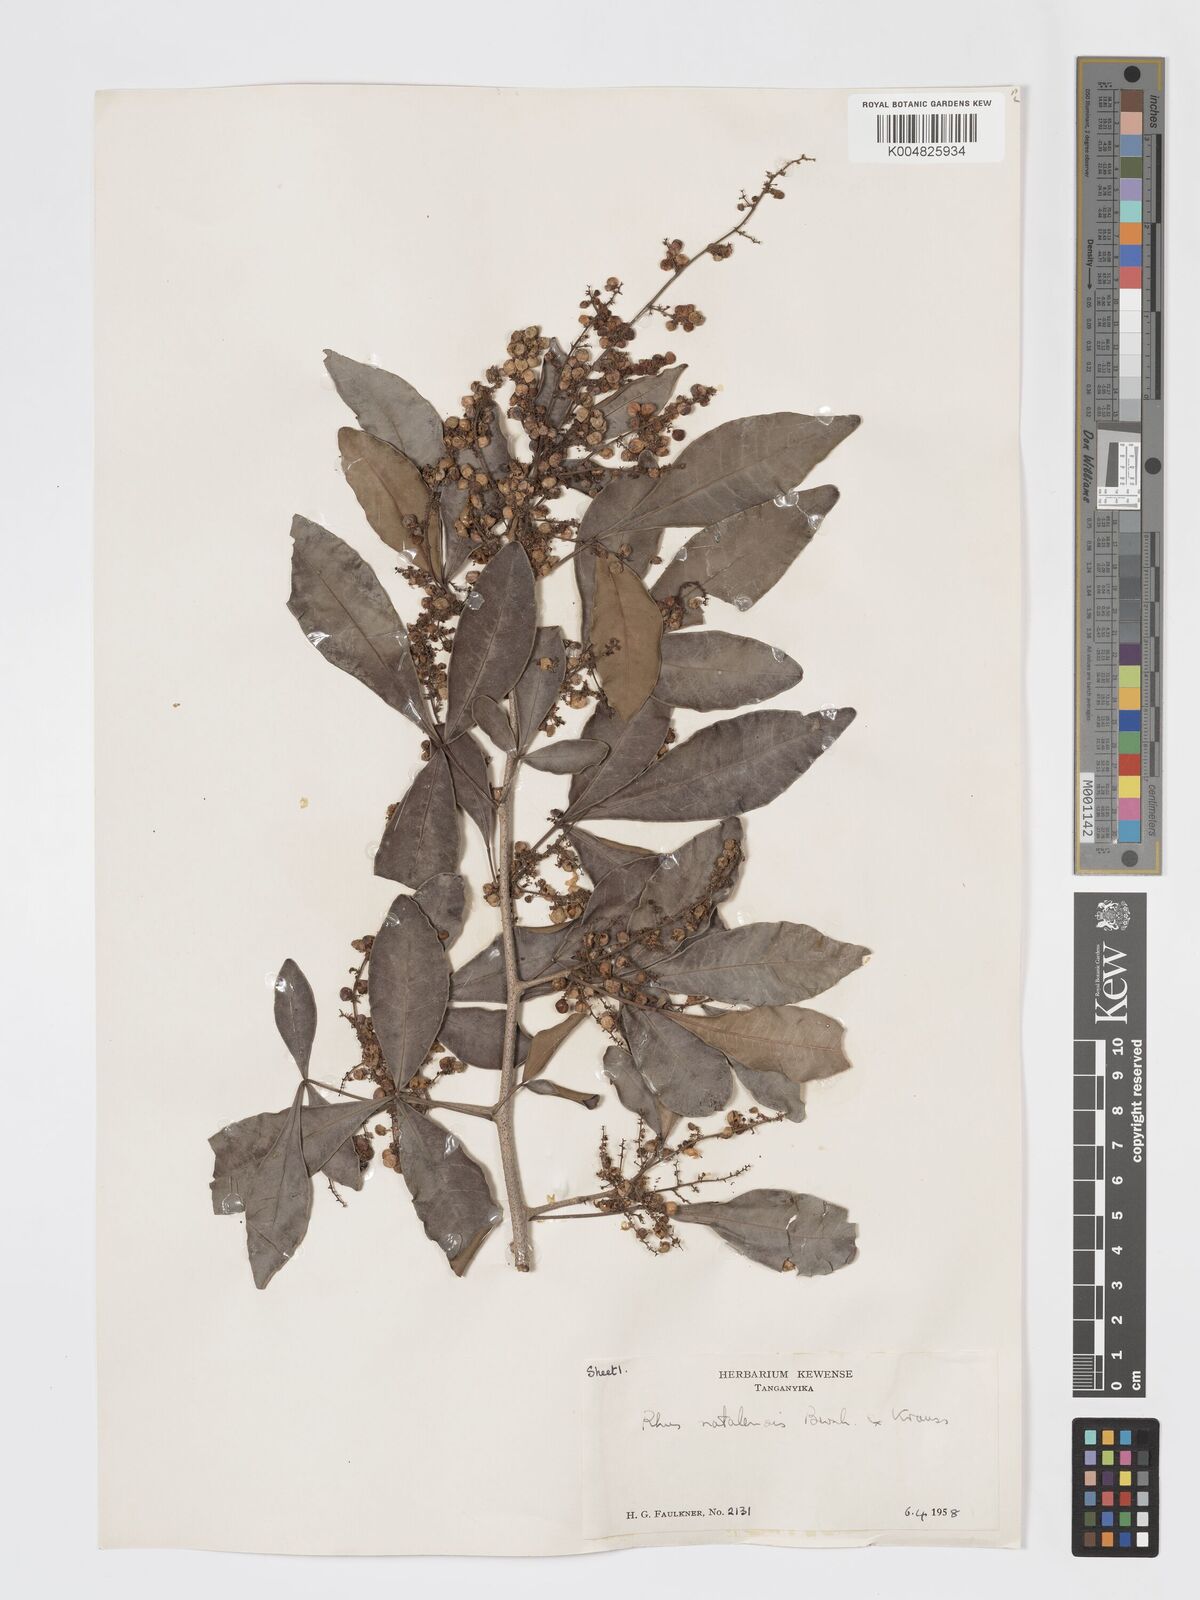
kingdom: Plantae
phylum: Tracheophyta
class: Magnoliopsida
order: Sapindales
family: Anacardiaceae
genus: Searsia
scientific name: Searsia natalensis
